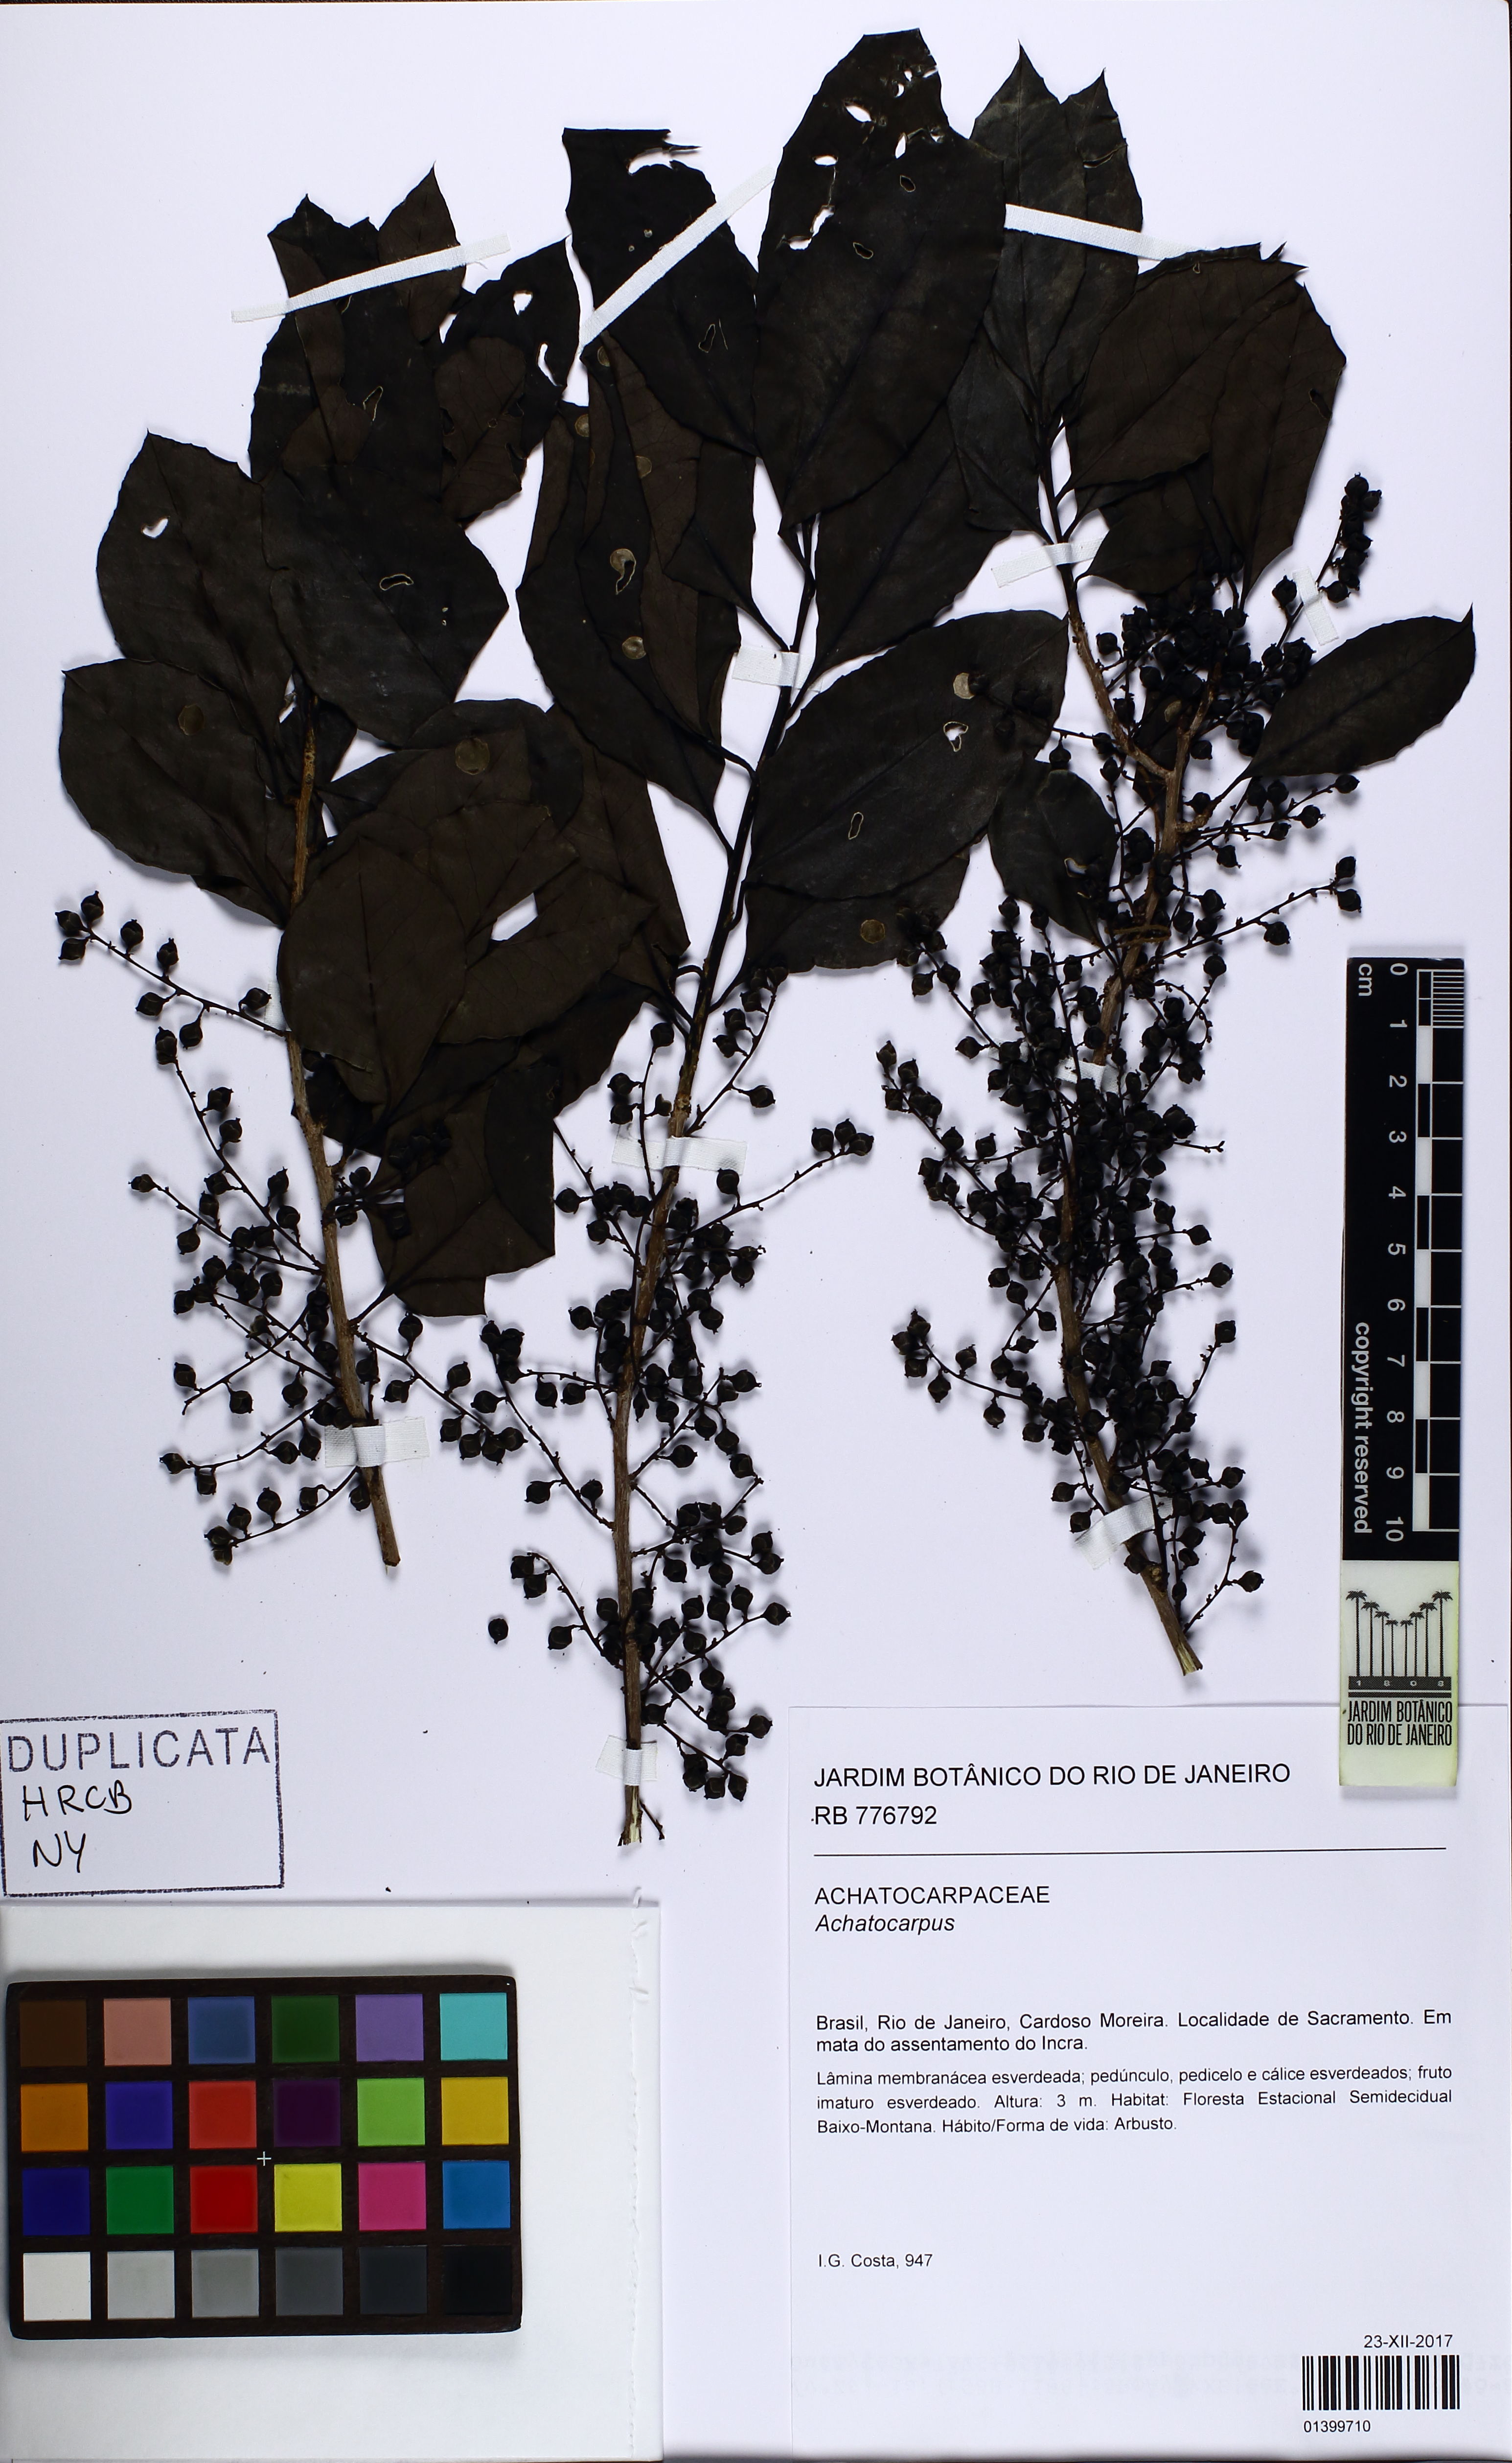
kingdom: Plantae
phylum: Tracheophyta
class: Magnoliopsida
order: Caryophyllales
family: Achatocarpaceae
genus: Achatocarpus
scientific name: Achatocarpus
